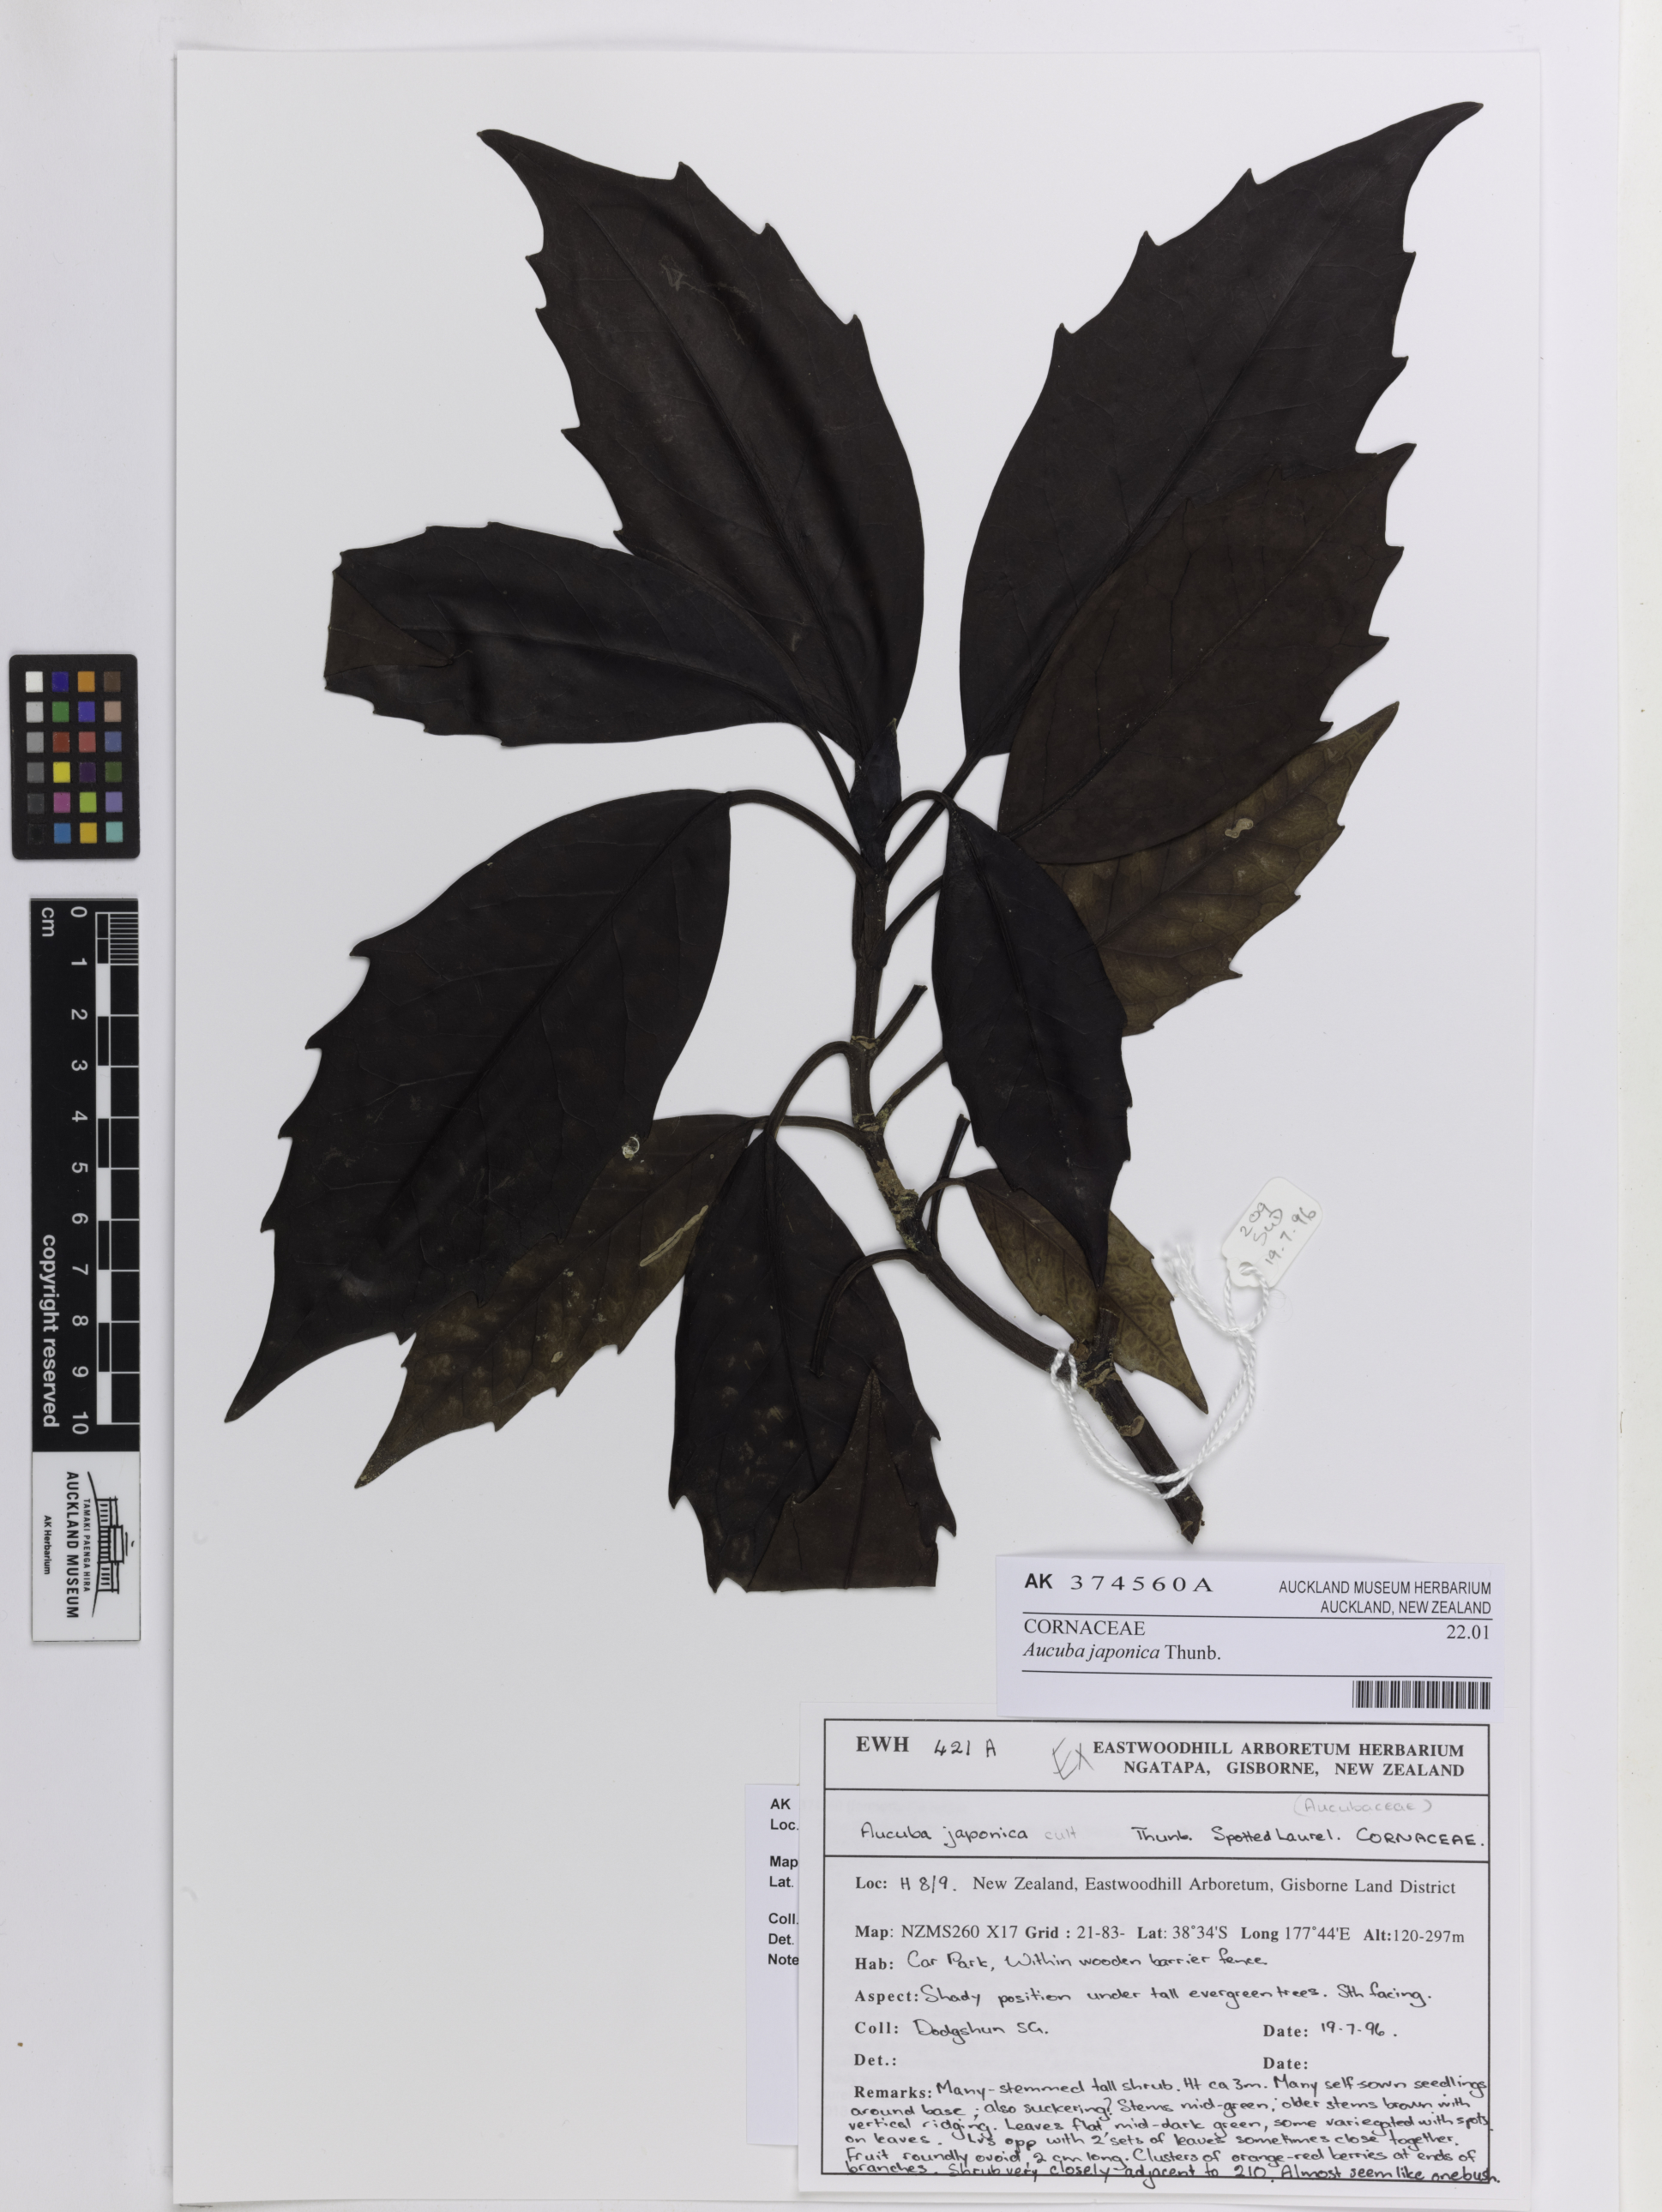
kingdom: Plantae
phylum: Tracheophyta
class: Magnoliopsida
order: Garryales
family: Garryaceae
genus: Aucuba
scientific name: Aucuba japonica
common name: Spotted-laurel
